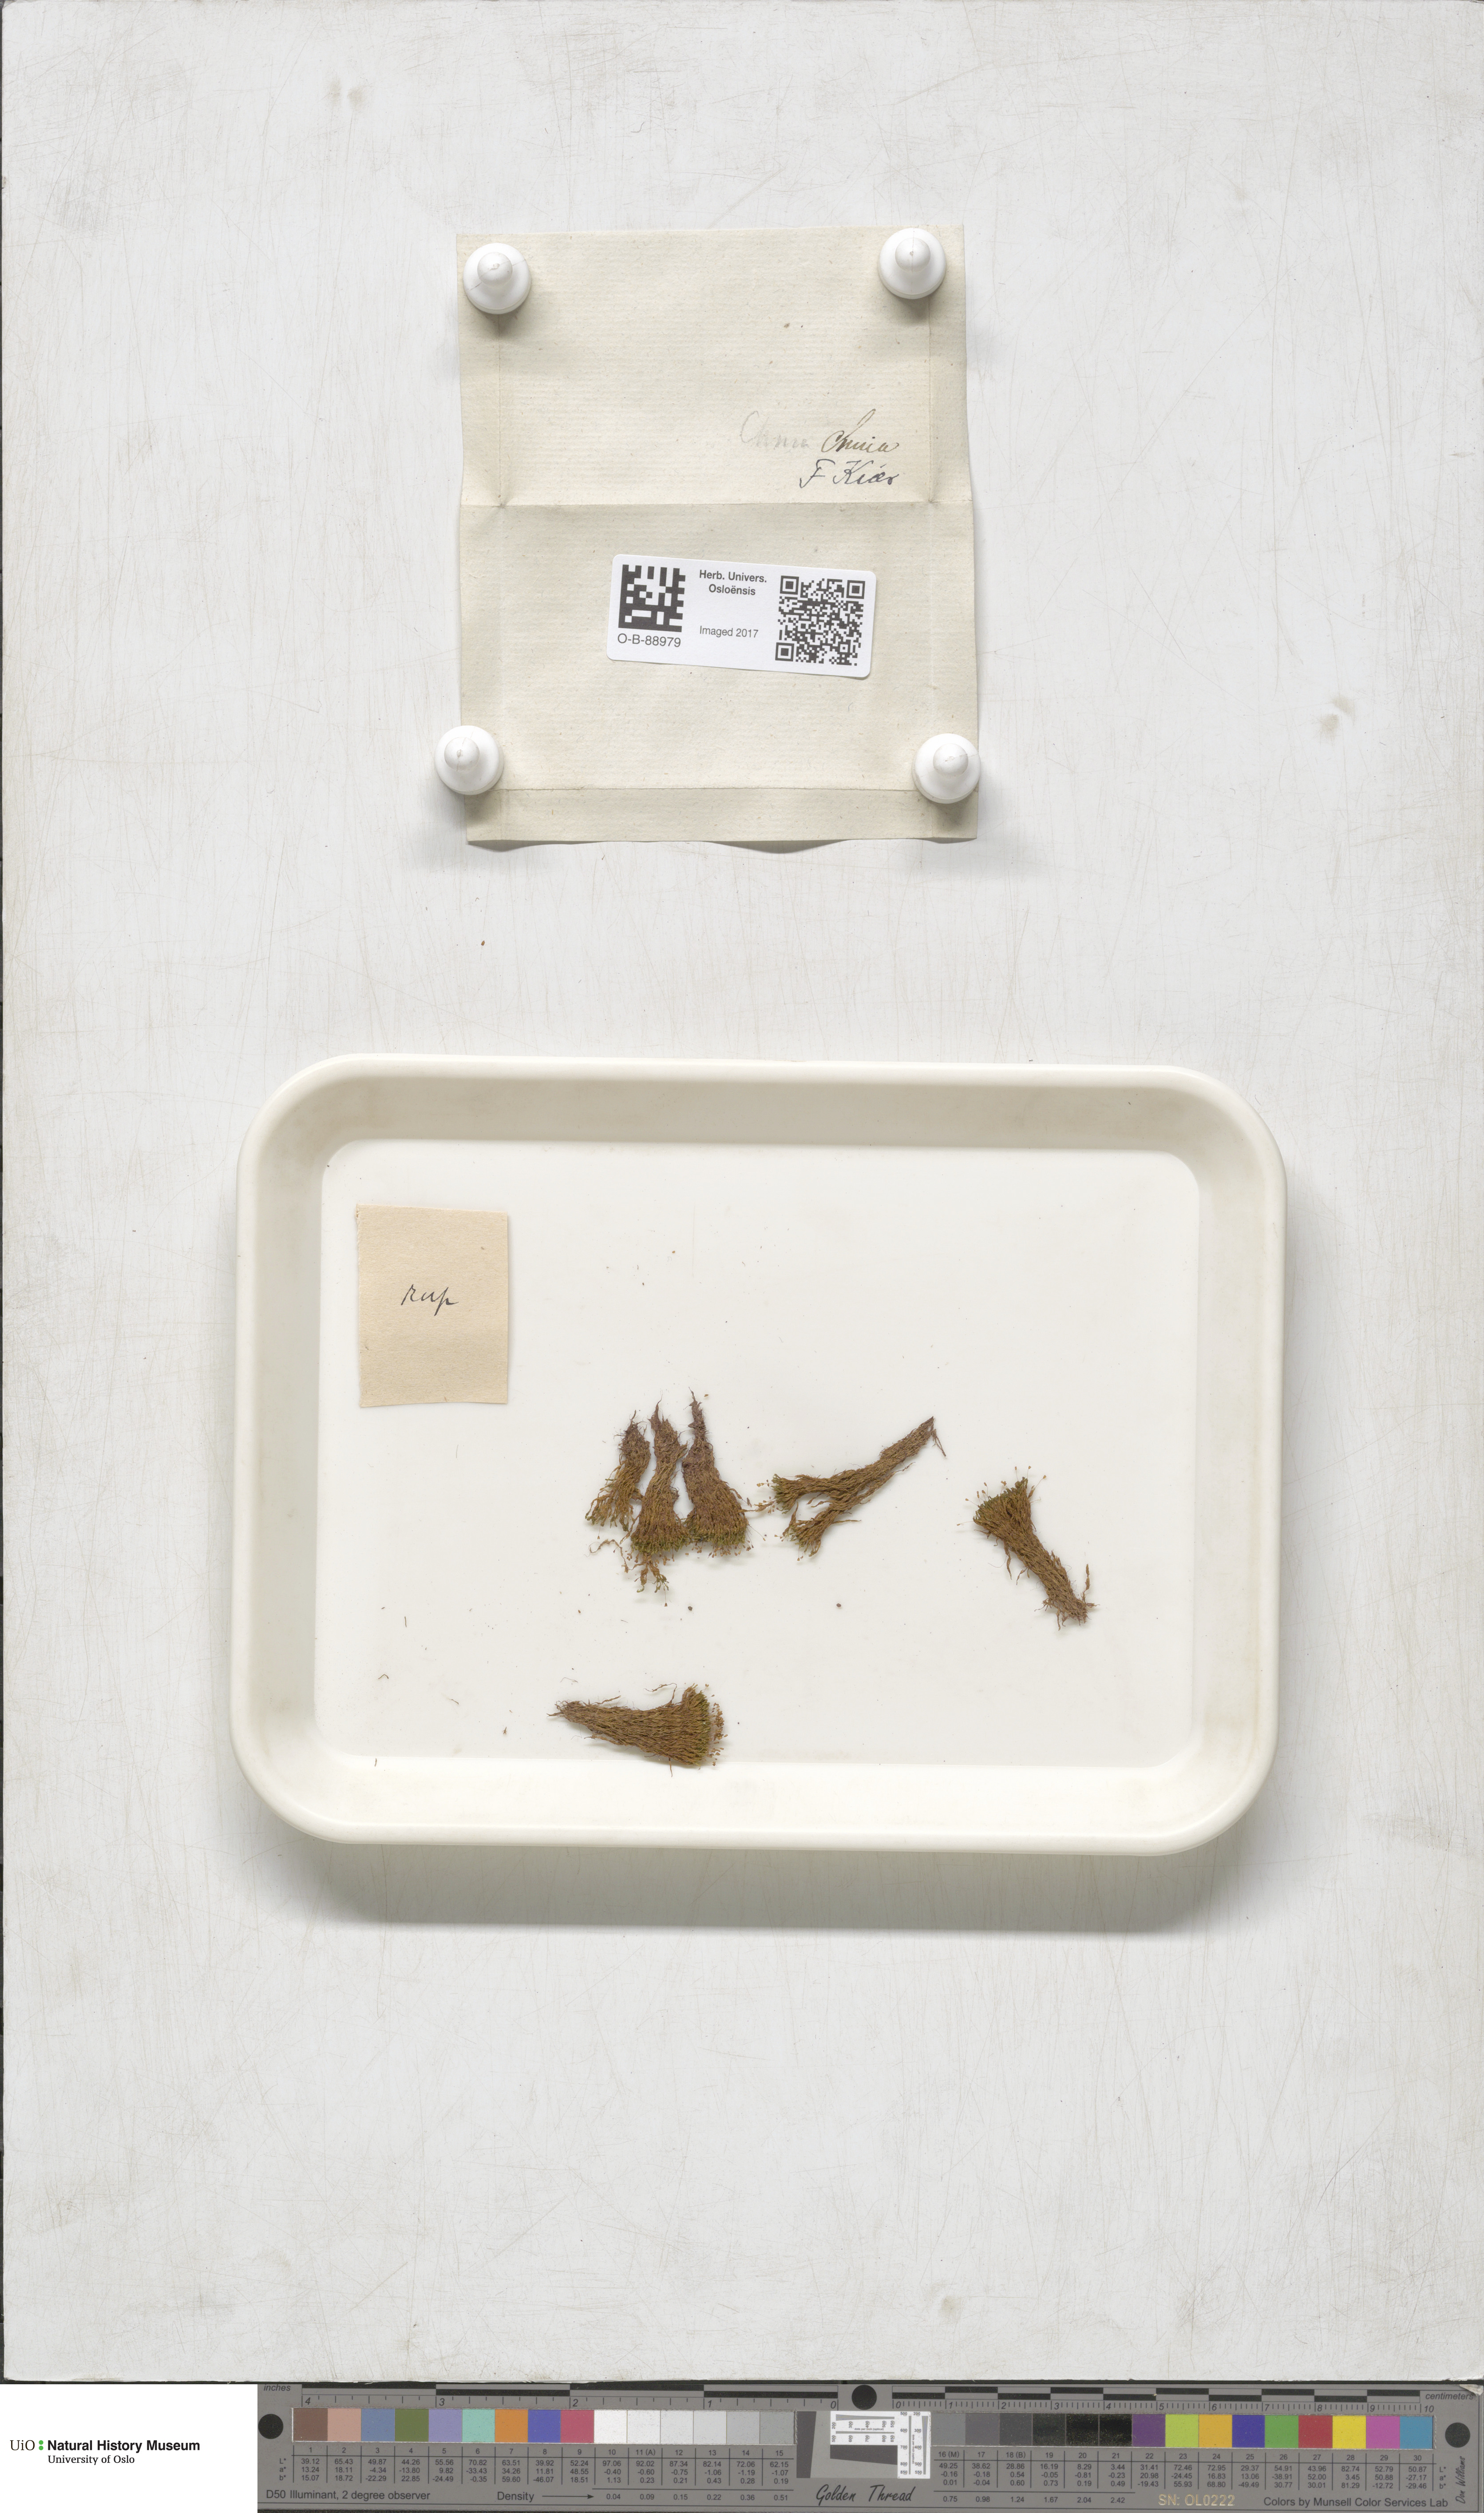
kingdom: Plantae
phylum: Bryophyta
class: Bryopsida
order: Pottiales
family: Pottiaceae
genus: Gymnostomum
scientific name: Gymnostomum aeruginosum
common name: Verdigris tufa-moss
